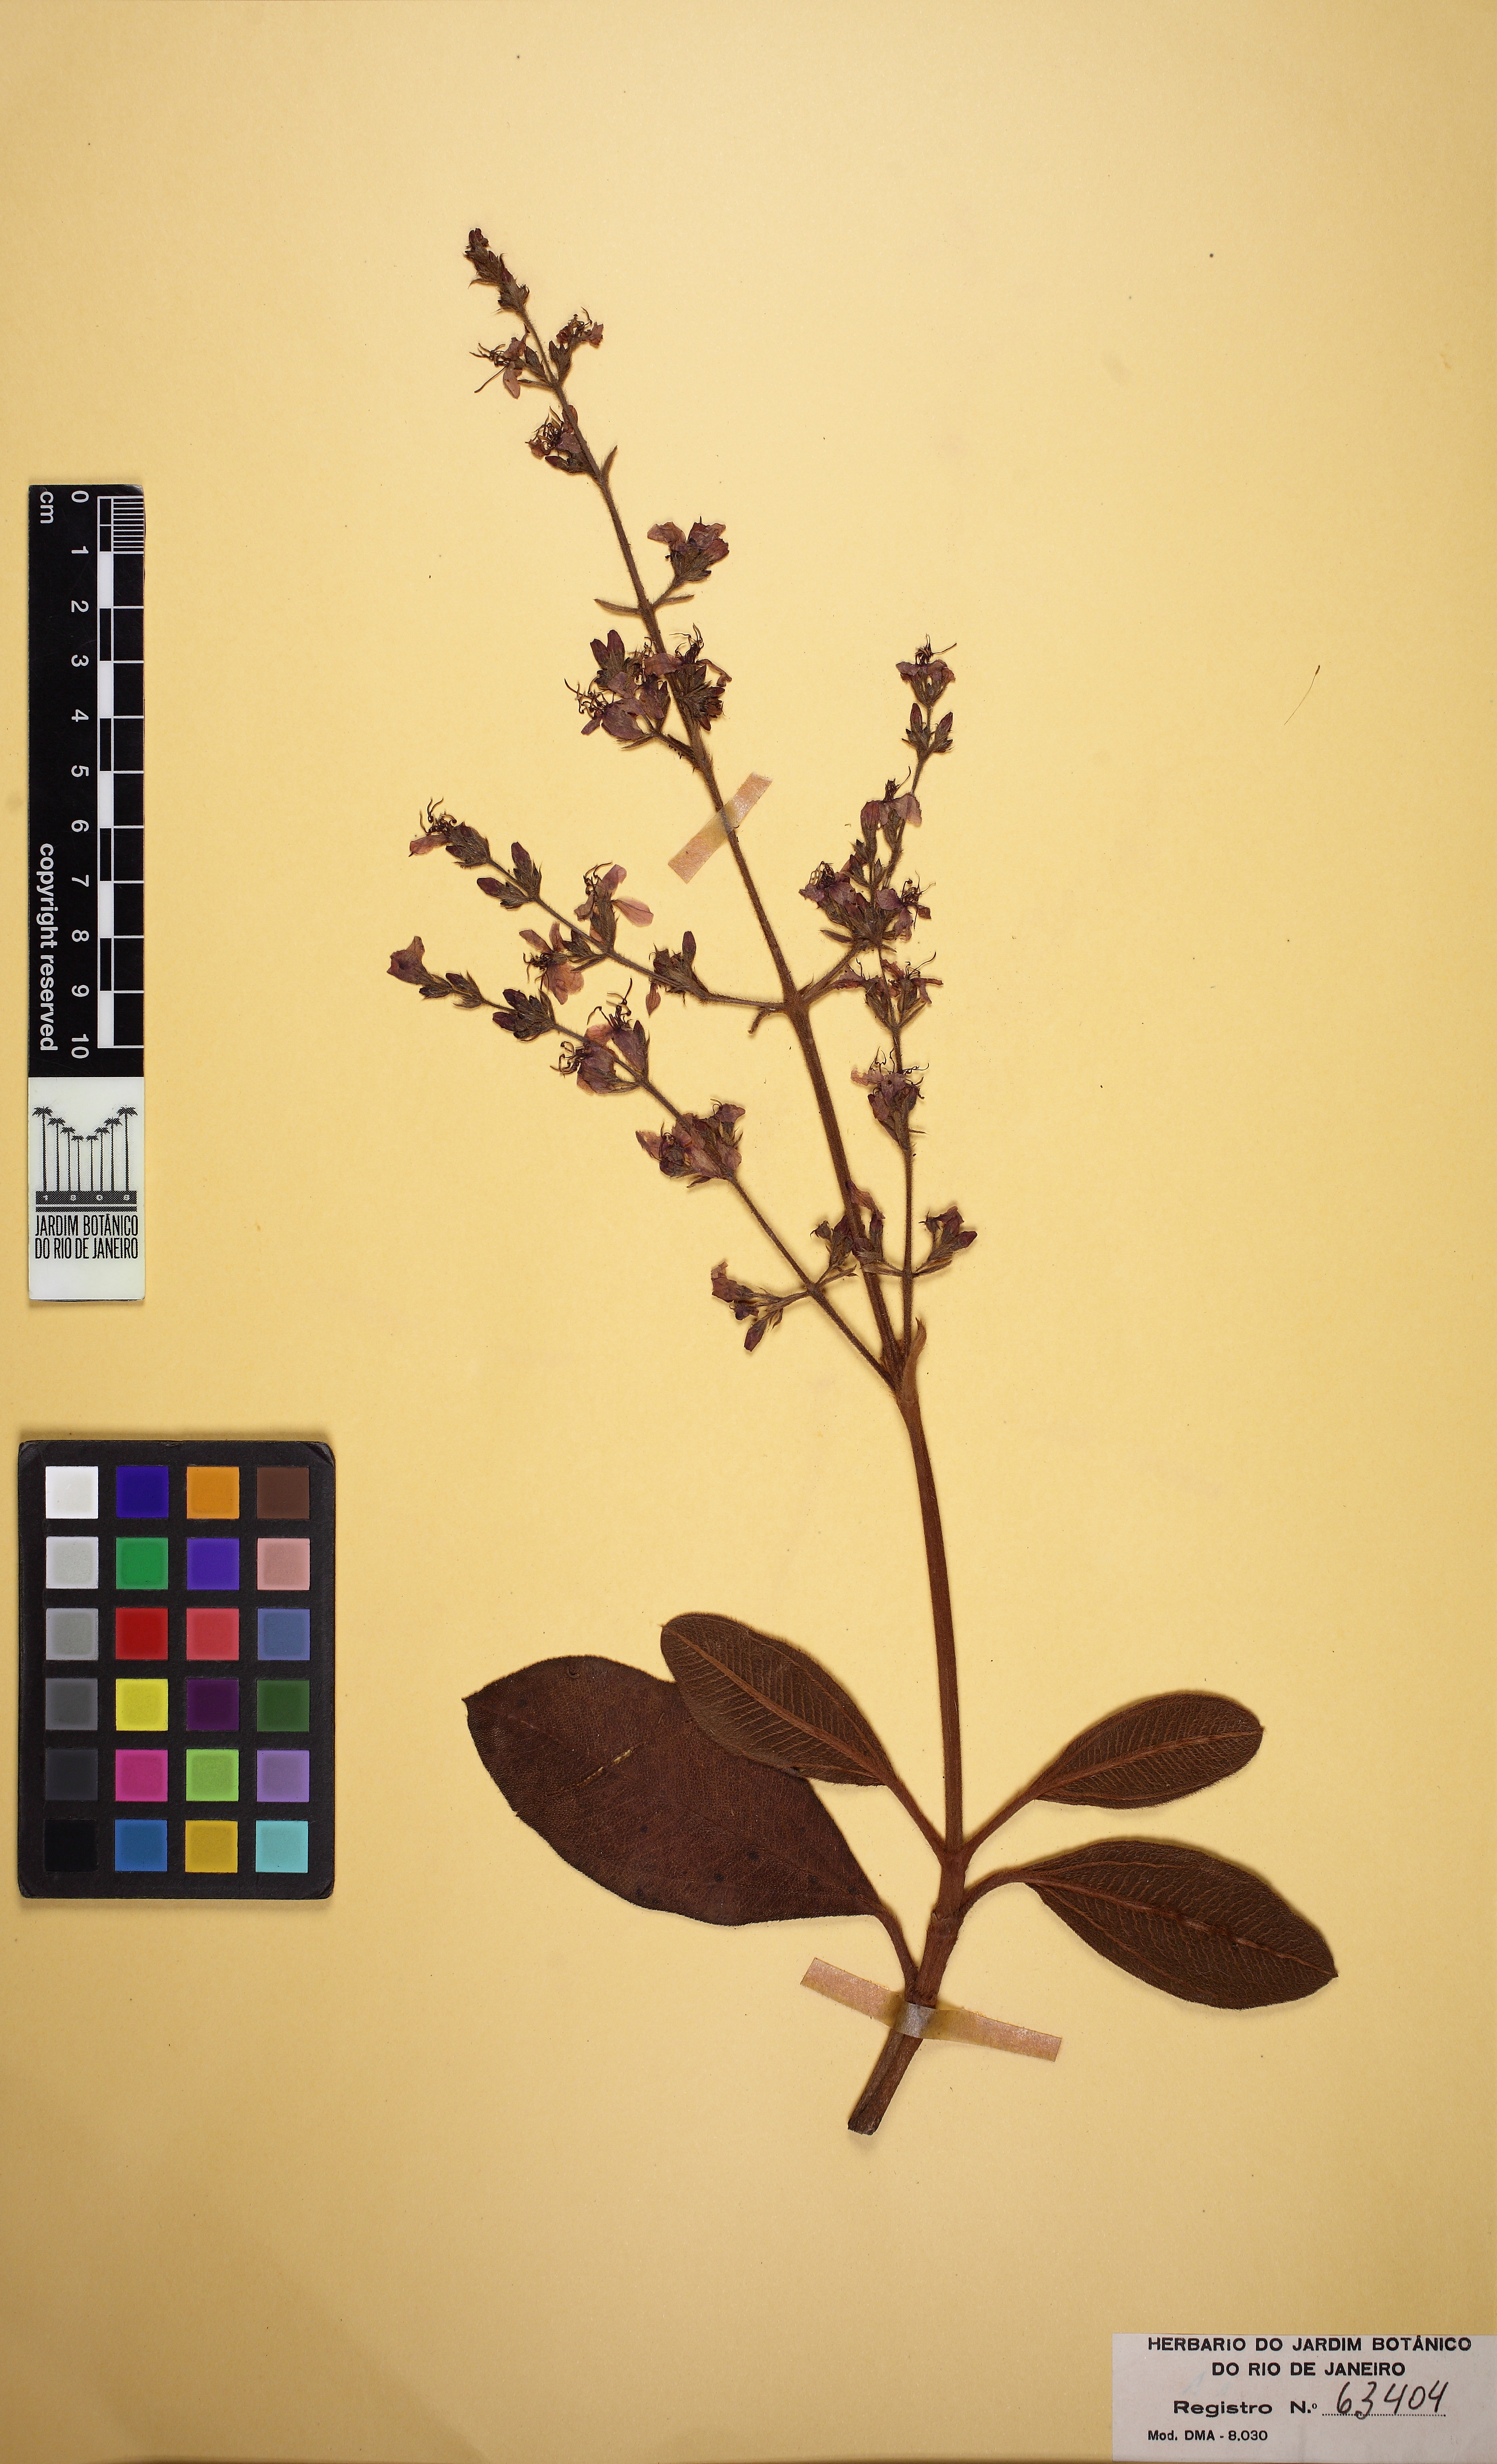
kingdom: Plantae
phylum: Tracheophyta
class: Magnoliopsida
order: Myrtales
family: Melastomataceae
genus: Macairea
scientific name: Macairea radula
